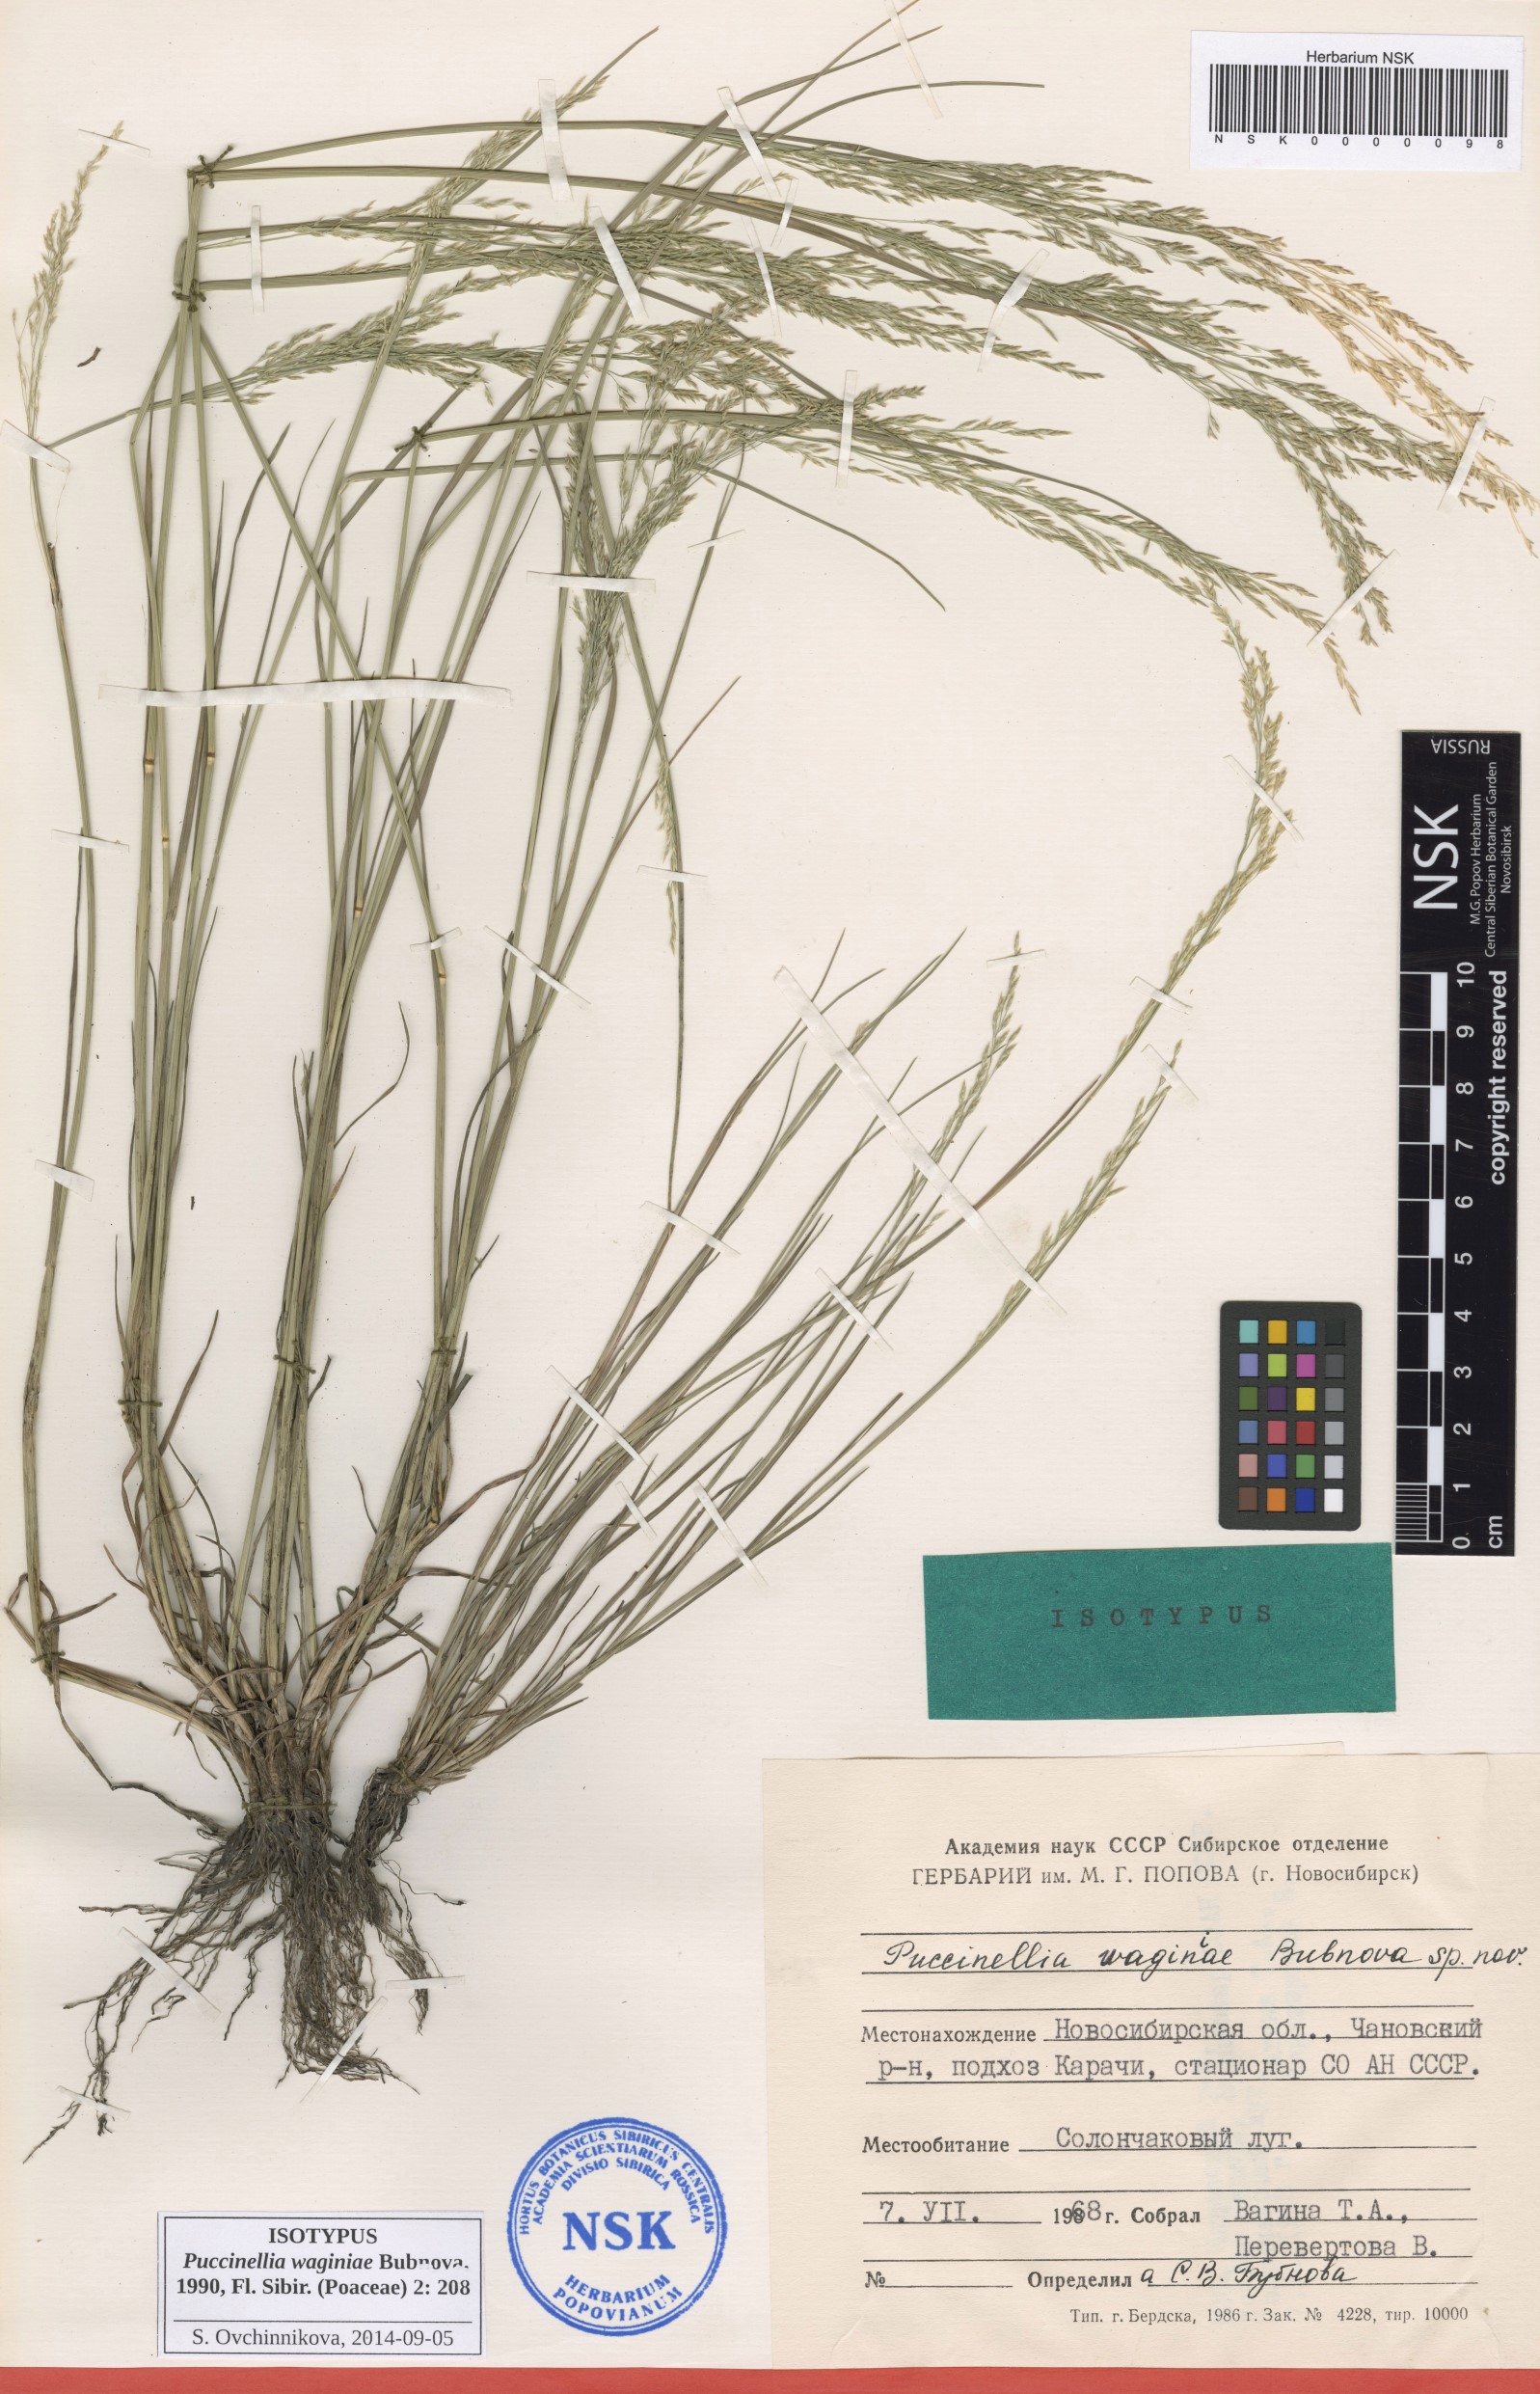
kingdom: Plantae
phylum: Tracheophyta
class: Liliopsida
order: Poales
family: Poaceae
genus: Puccinellia
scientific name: Puccinellia gigantea
